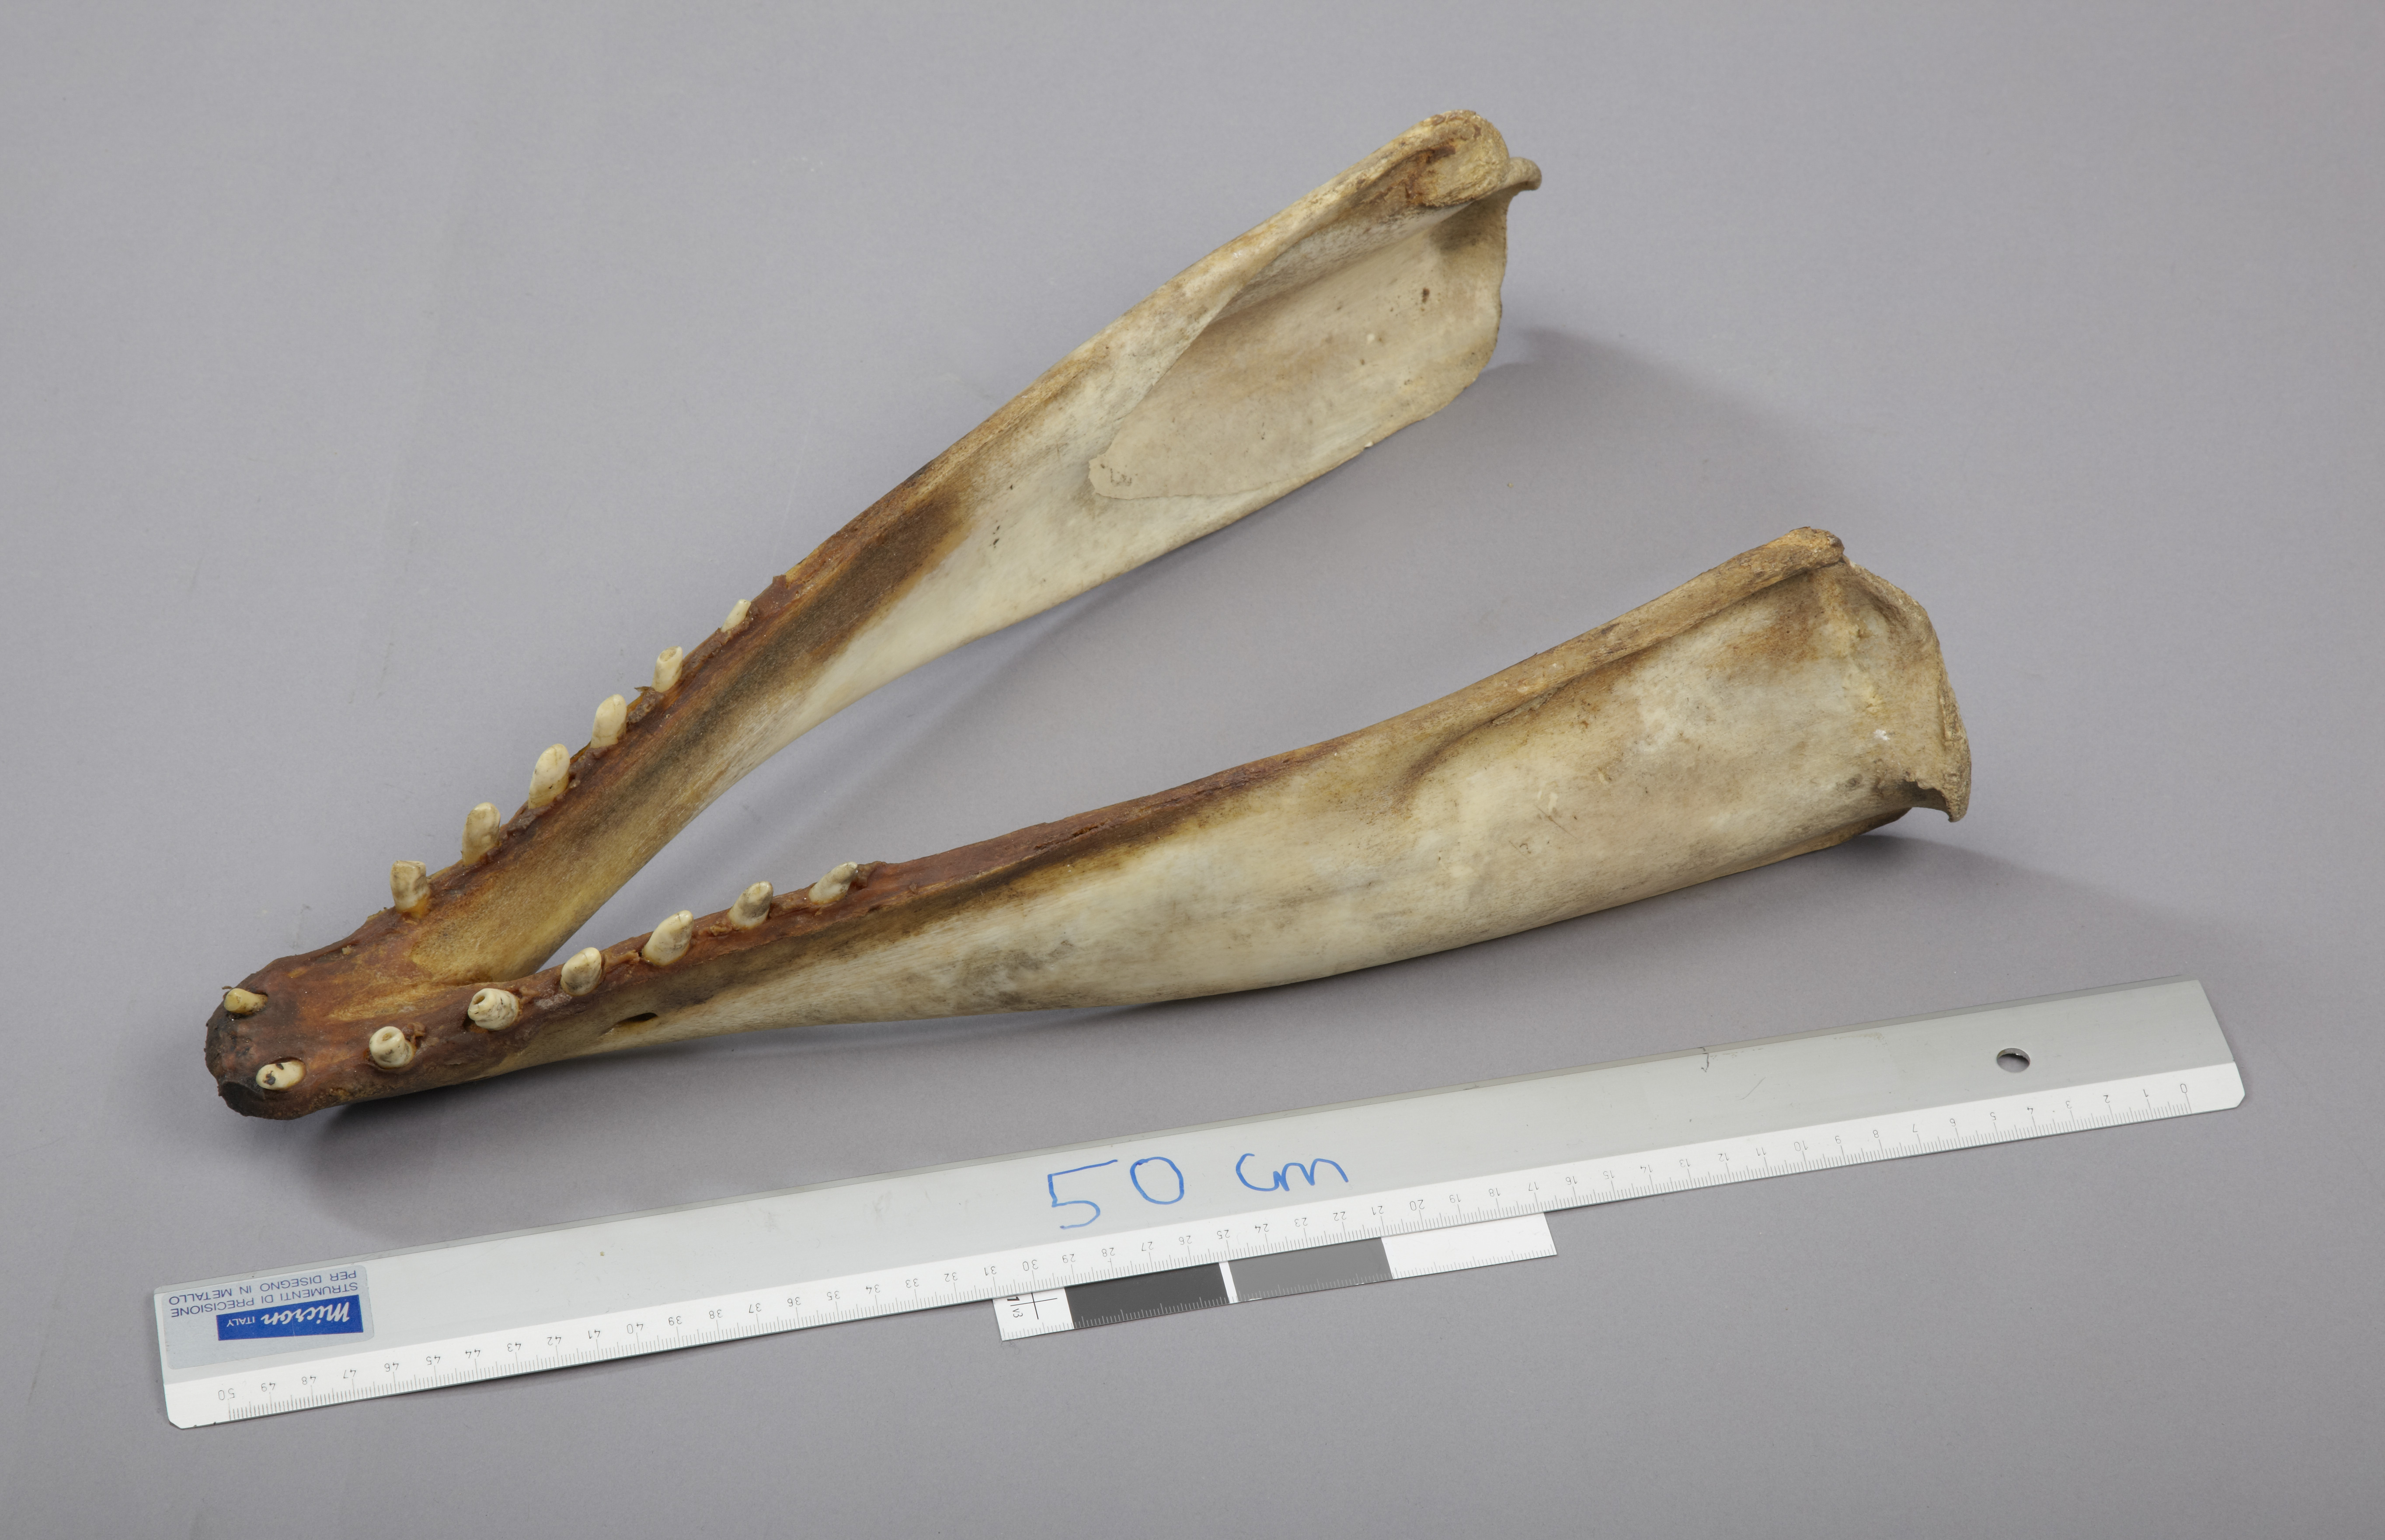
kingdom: Animalia
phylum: Chordata
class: Mammalia
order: Cetacea
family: Monodontidae
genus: Delphinapterus
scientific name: Delphinapterus leucas
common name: Beluga
